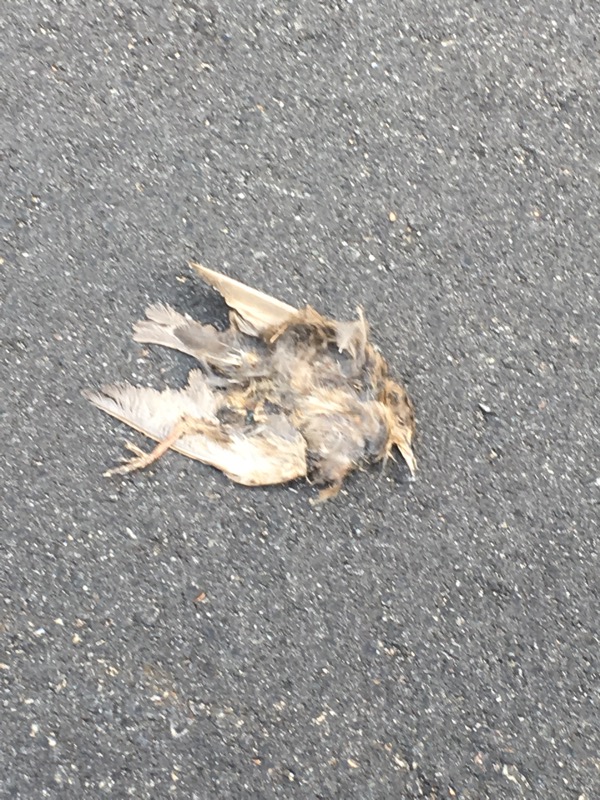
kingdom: Animalia
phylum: Chordata
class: Aves
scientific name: Aves
